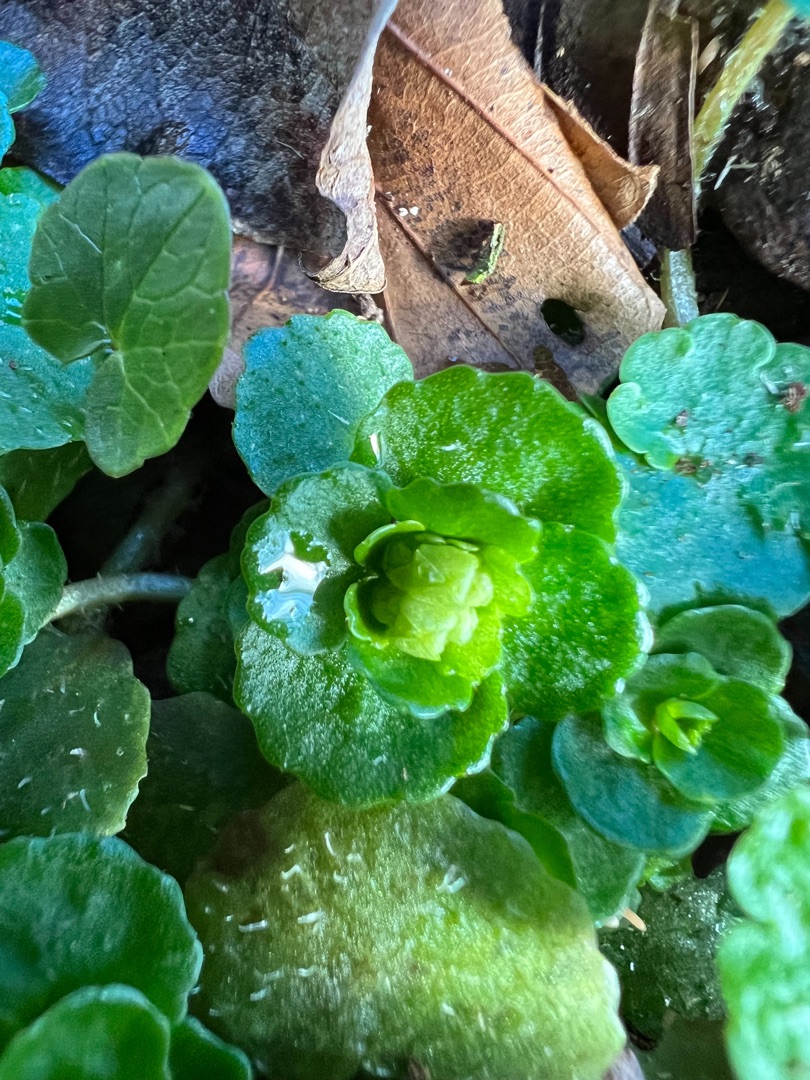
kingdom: Plantae
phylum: Tracheophyta
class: Magnoliopsida
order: Saxifragales
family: Saxifragaceae
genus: Chrysosplenium
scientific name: Chrysosplenium oppositifolium
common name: Småbladet milturt
